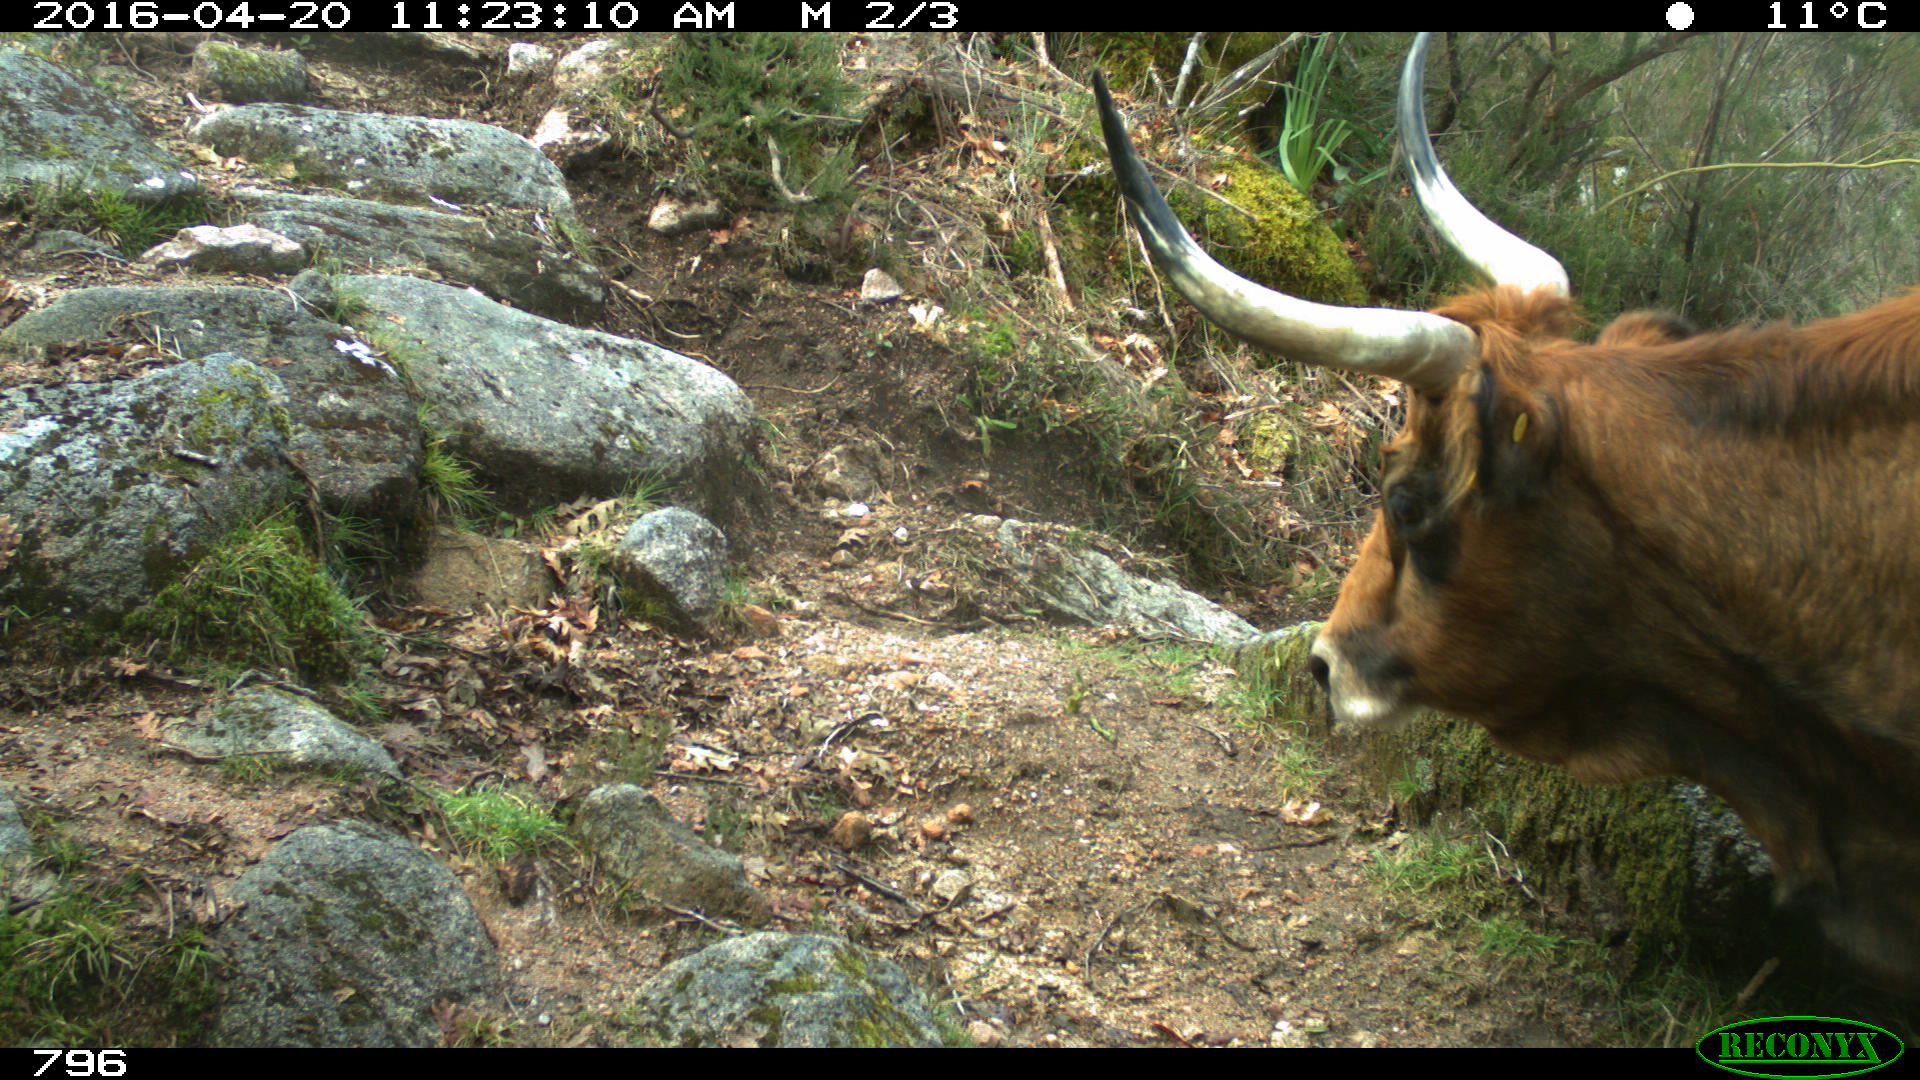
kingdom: Animalia
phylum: Chordata
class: Mammalia
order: Artiodactyla
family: Bovidae
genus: Bos
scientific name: Bos taurus
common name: Domesticated cattle
